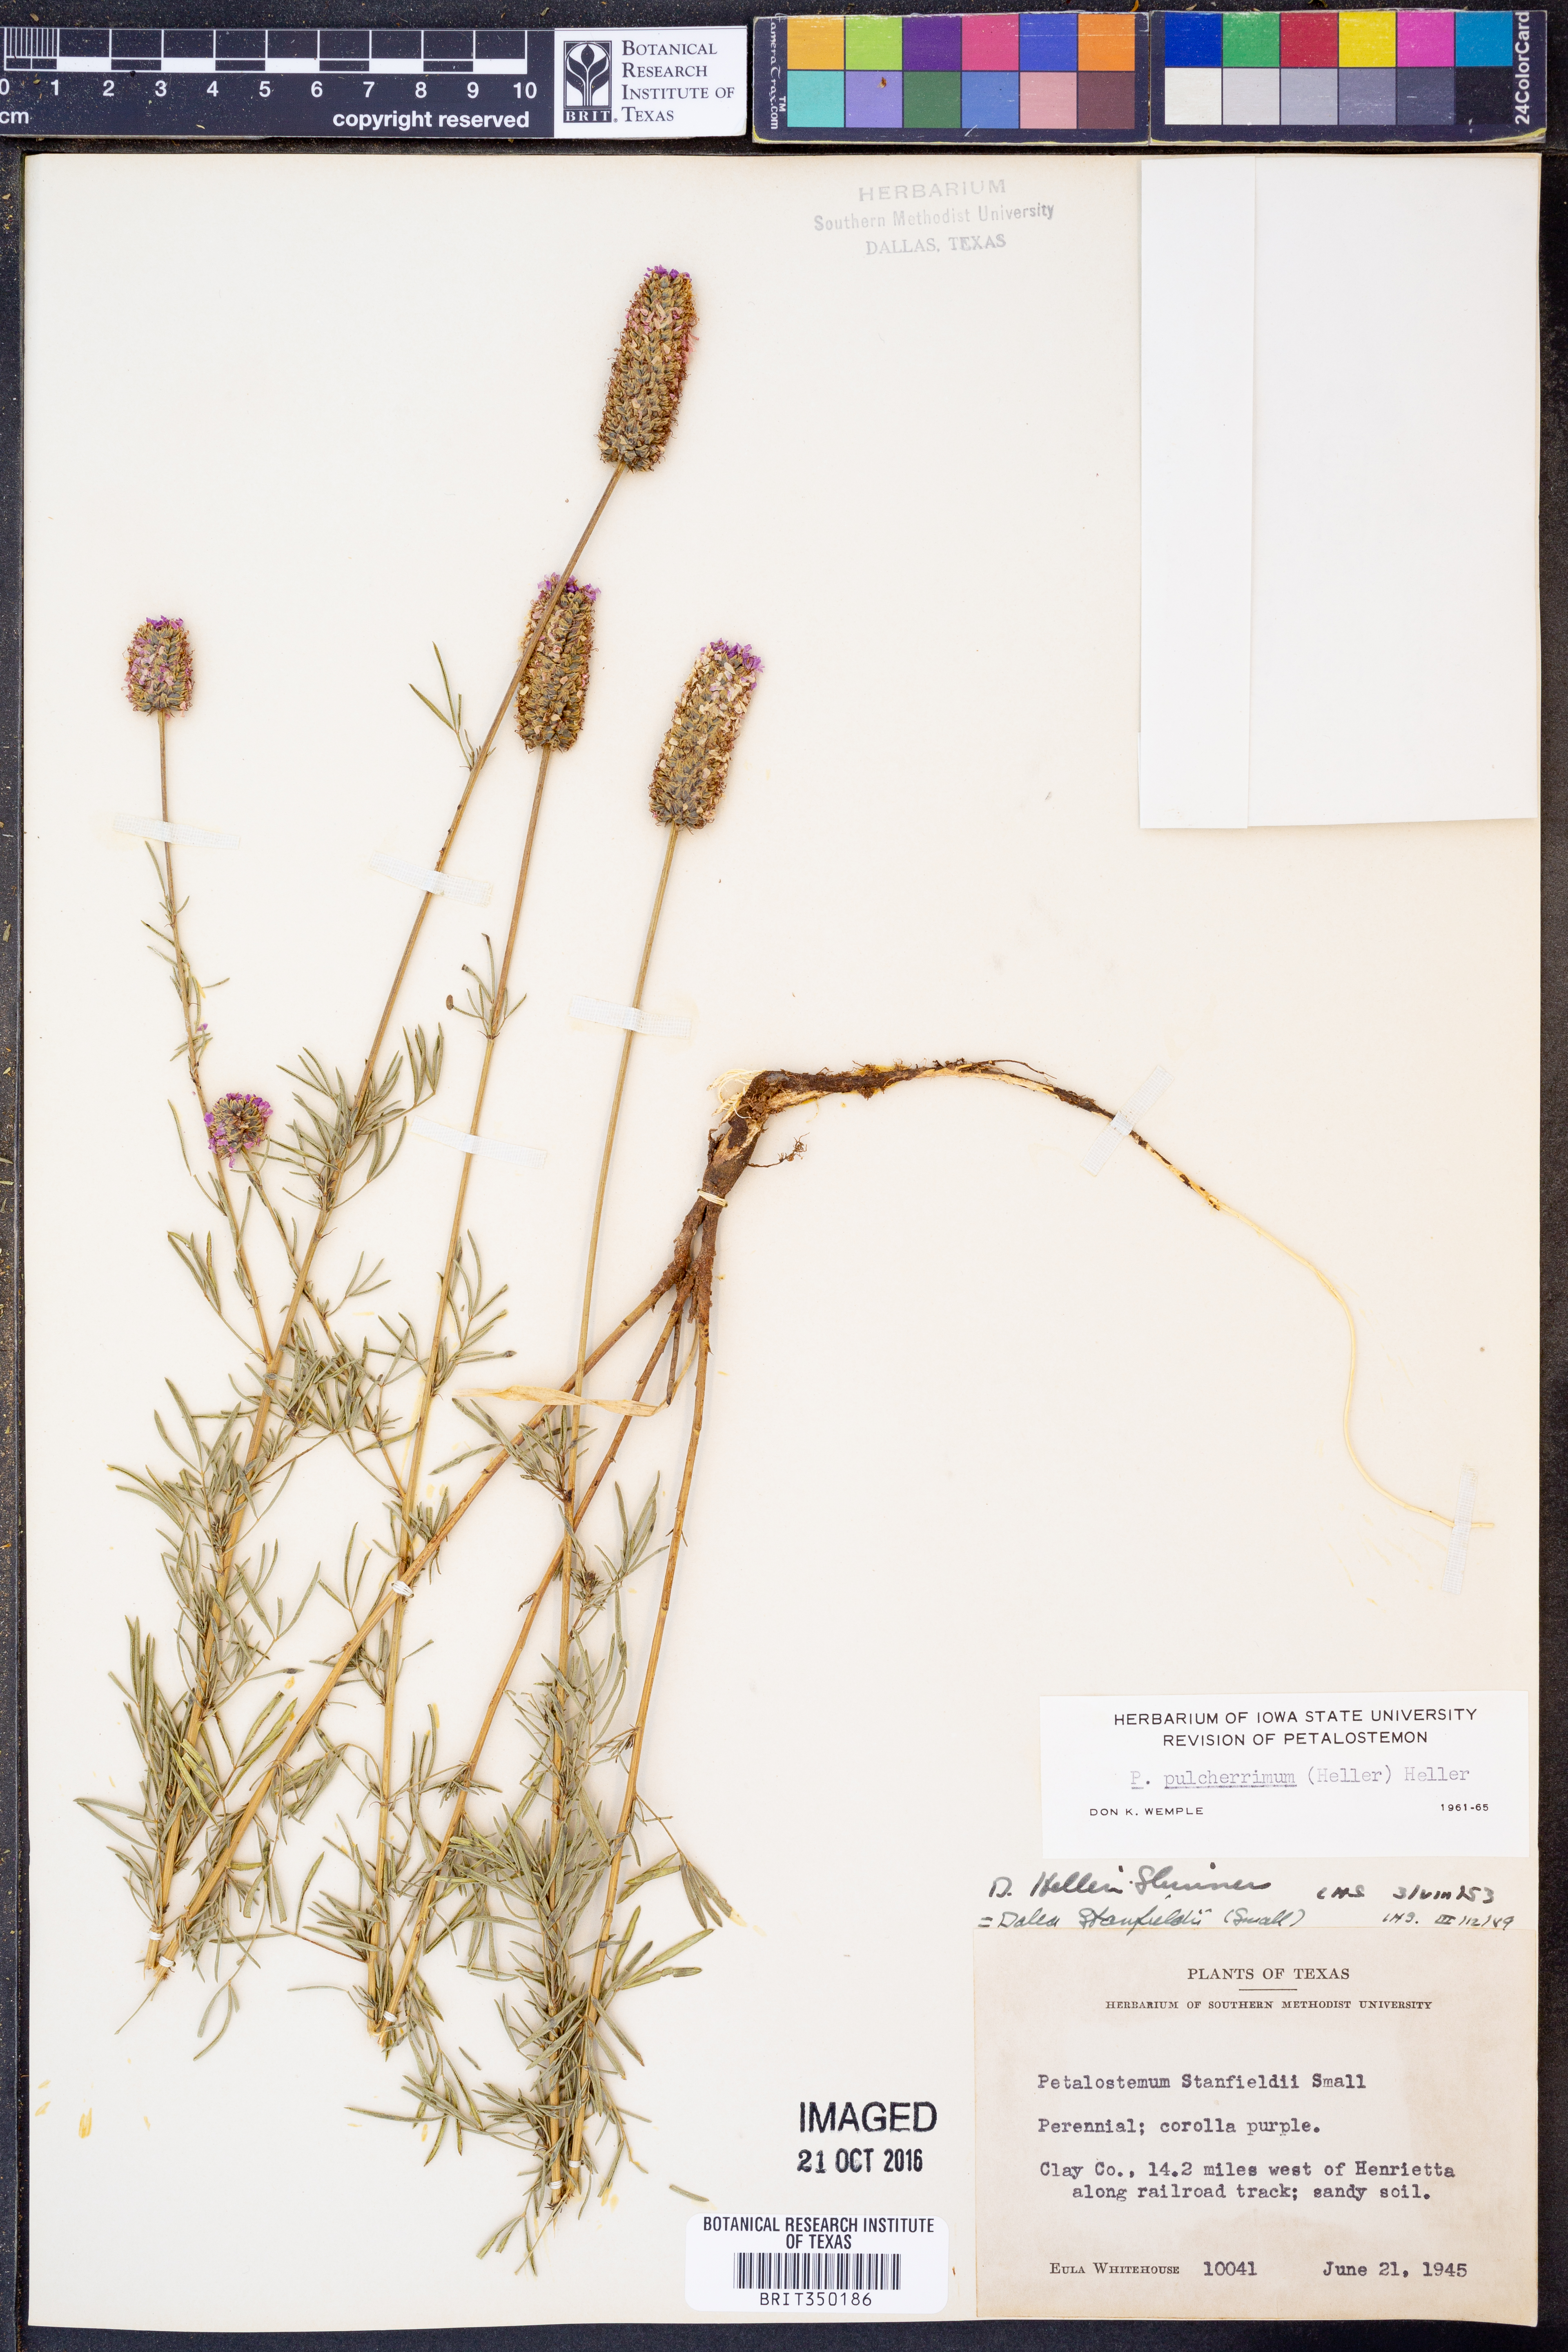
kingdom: Plantae
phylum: Tracheophyta
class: Magnoliopsida
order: Fabales
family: Fabaceae
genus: Dalea
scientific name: Dalea compacta
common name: Compact prairie-clover
